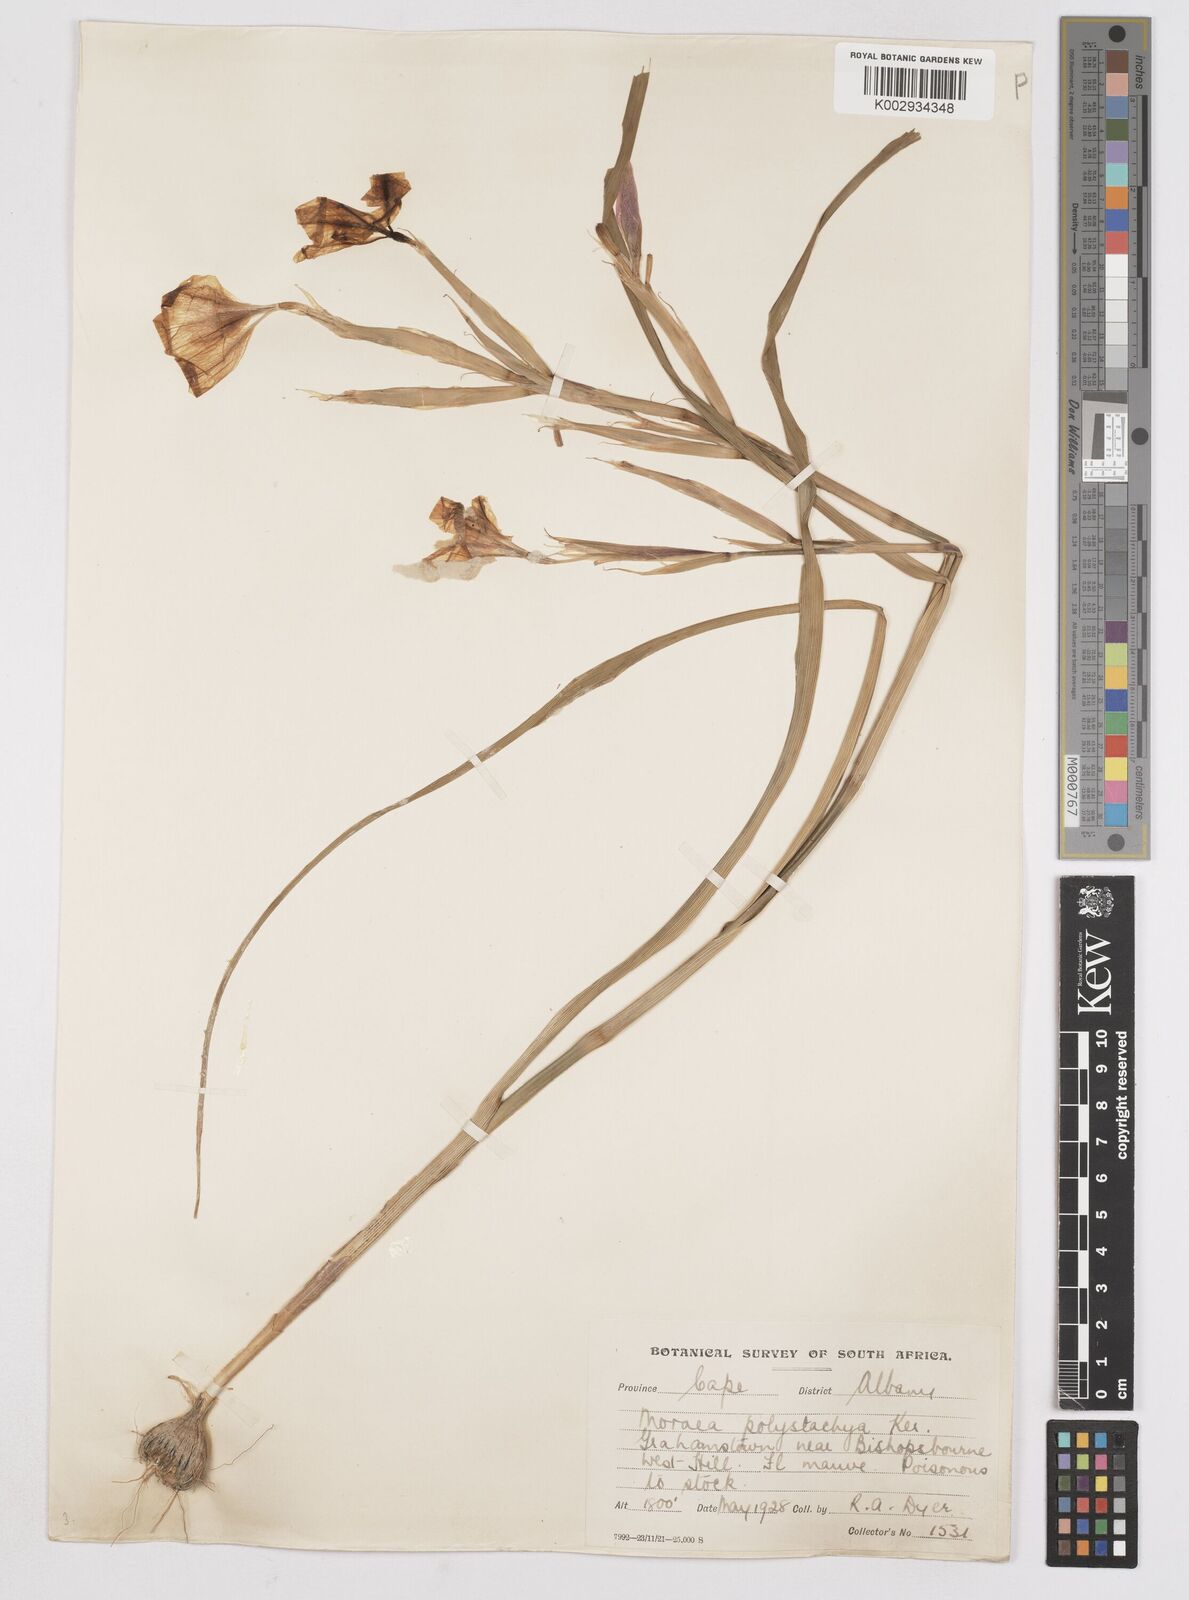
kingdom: Plantae
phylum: Tracheophyta
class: Liliopsida
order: Asparagales
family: Iridaceae
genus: Moraea
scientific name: Moraea polystachya
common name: Blue-tulip
